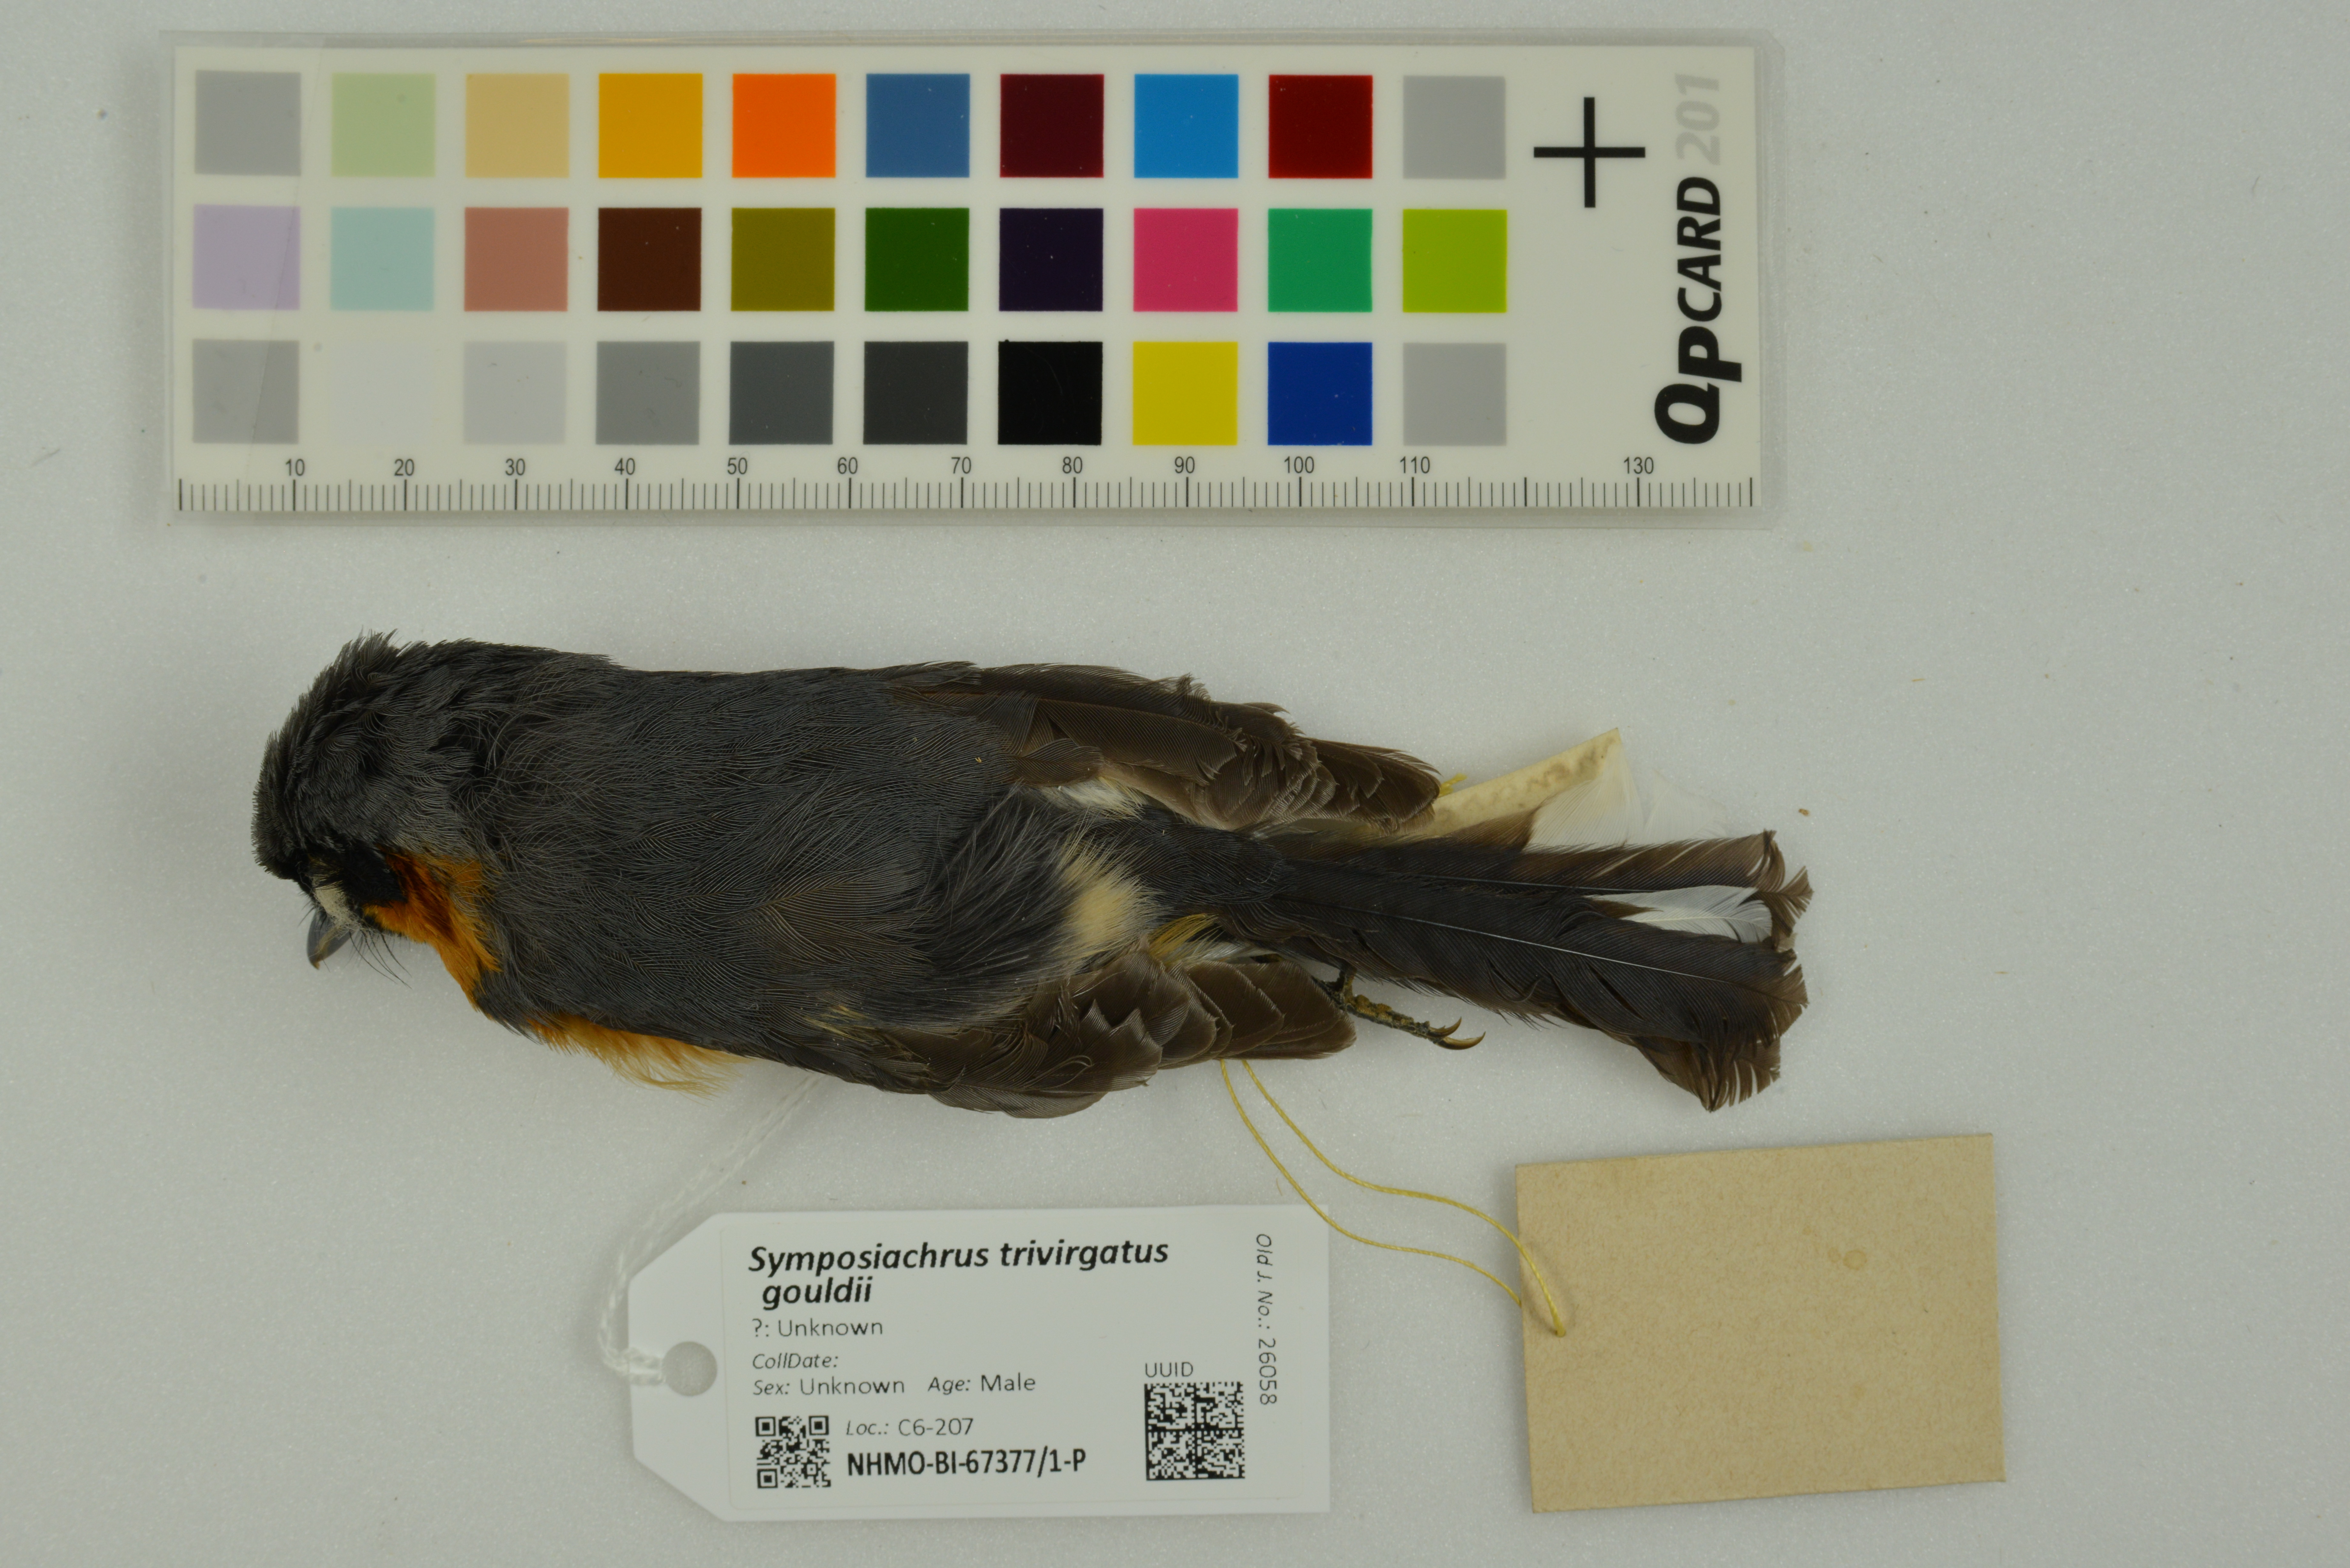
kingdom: Animalia
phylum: Chordata
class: Aves
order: Passeriformes
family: Monarchidae
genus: Symposiachrus
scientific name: Symposiachrus trivirgatus
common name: Spectacled monarch
